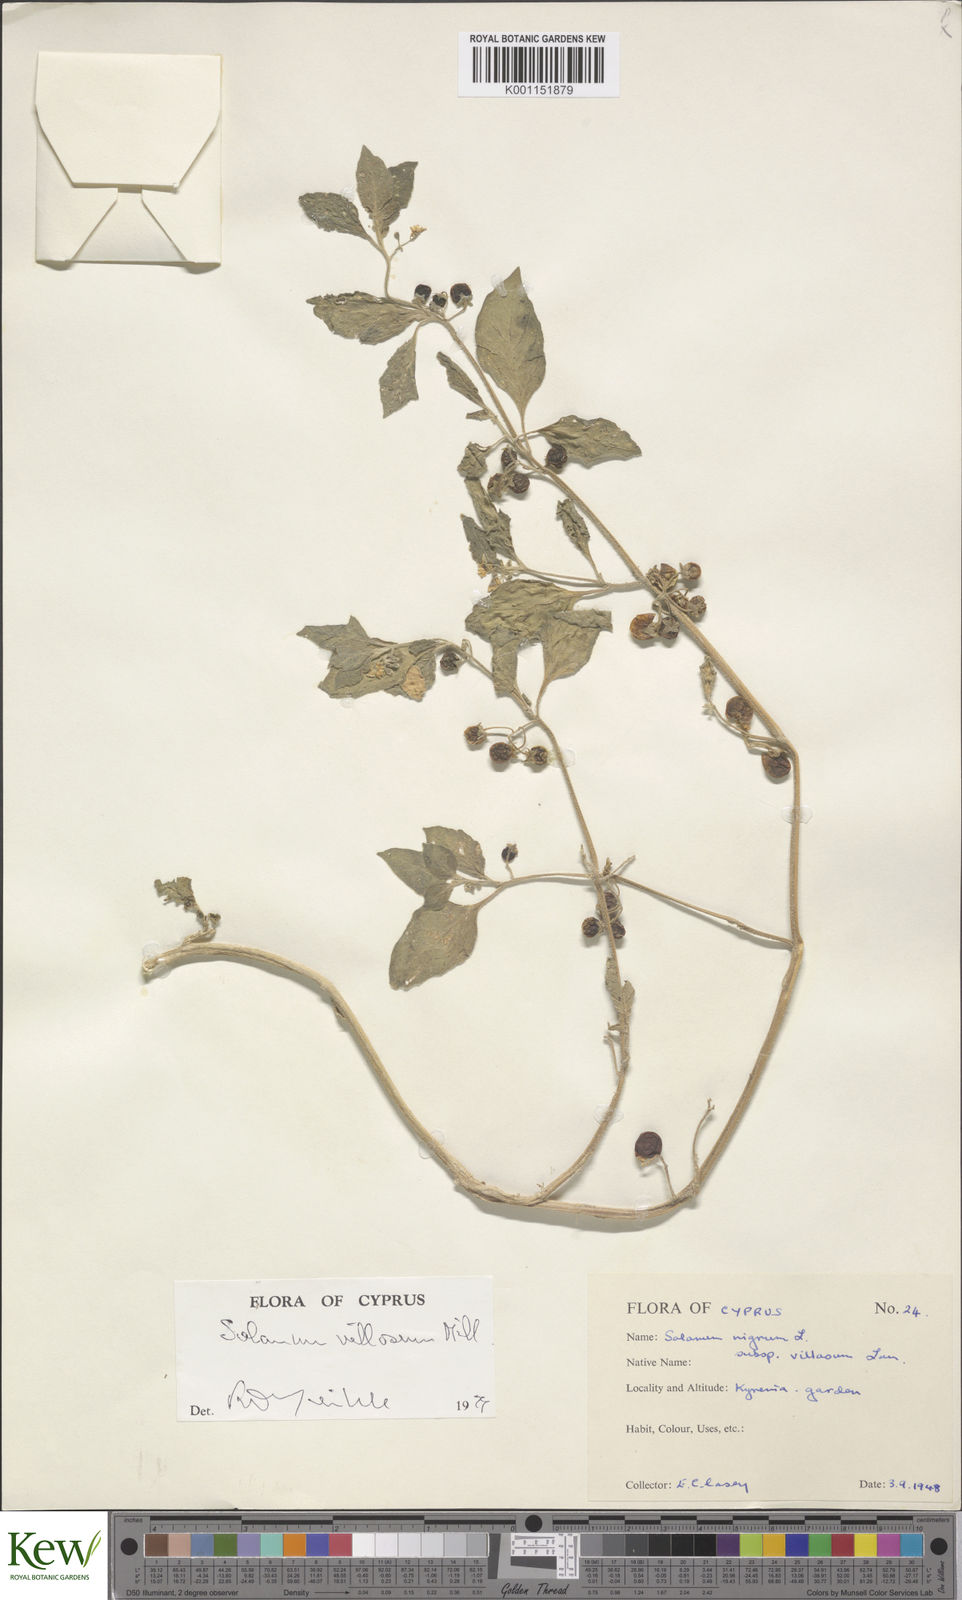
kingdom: Plantae
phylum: Tracheophyta
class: Magnoliopsida
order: Solanales
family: Solanaceae
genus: Solanum
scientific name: Solanum villosum
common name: Red nightshade
